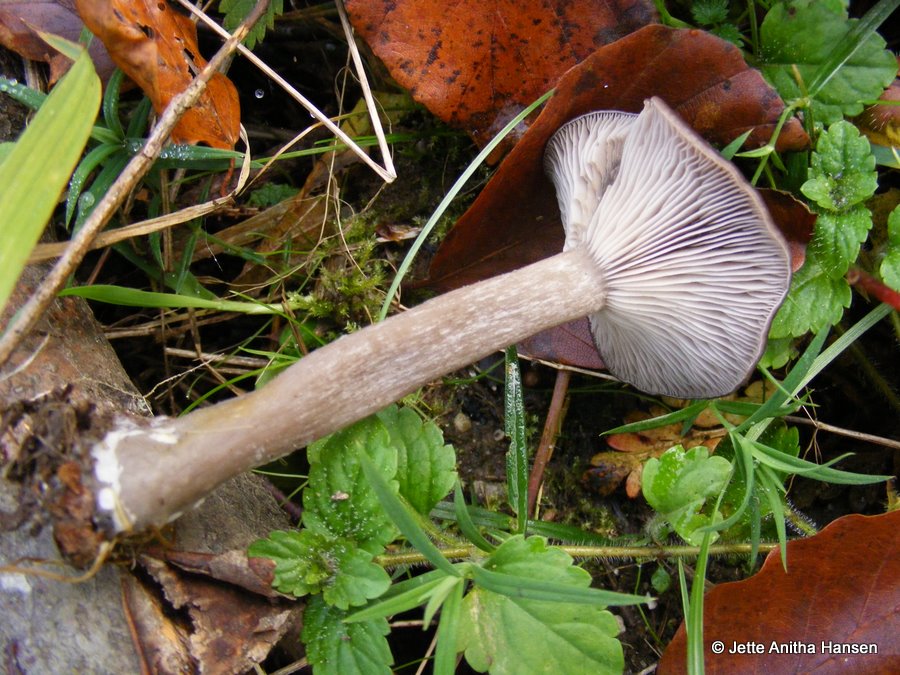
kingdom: Fungi
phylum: Basidiomycota
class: Agaricomycetes
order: Agaricales
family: Pseudoclitocybaceae
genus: Pseudoclitocybe
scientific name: Pseudoclitocybe cyathiformis
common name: almindelig bægertragthat
